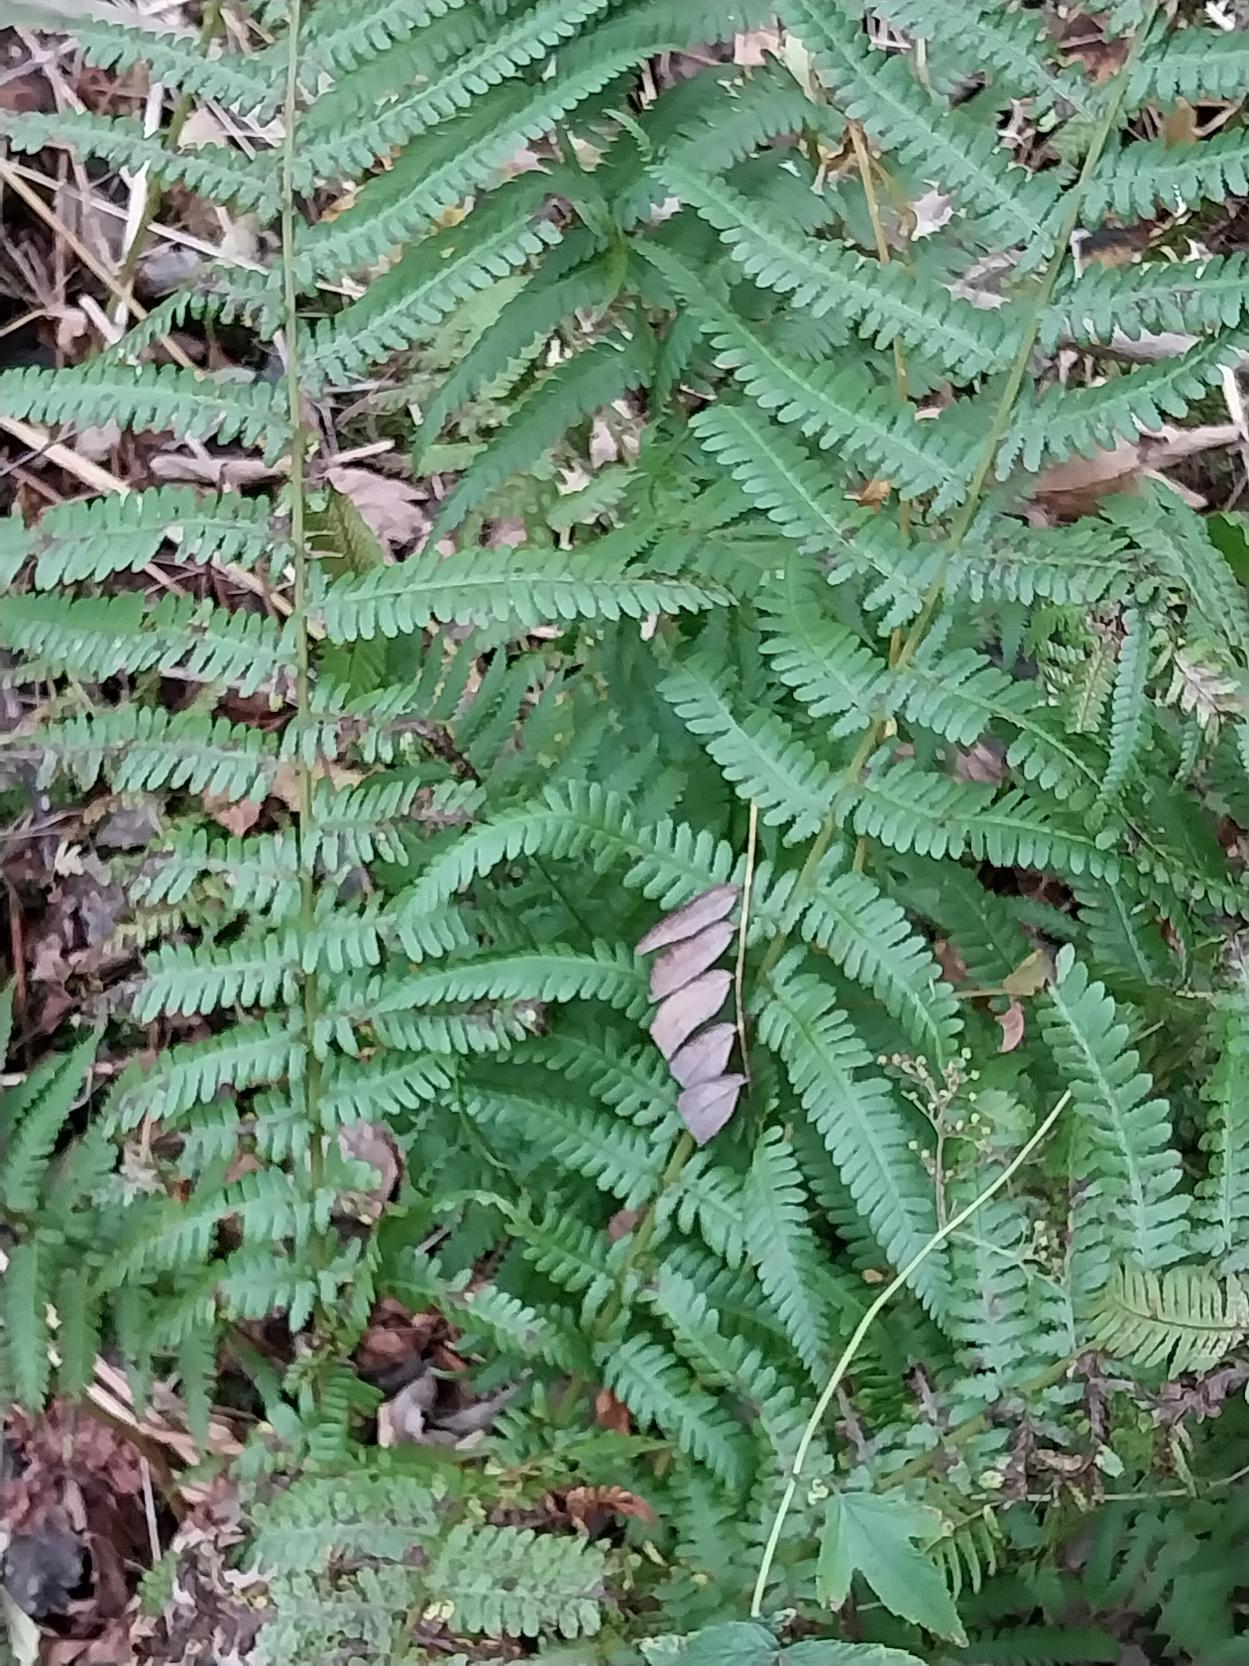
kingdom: Plantae
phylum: Tracheophyta
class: Polypodiopsida
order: Polypodiales
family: Dryopteridaceae
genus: Dryopteris
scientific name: Dryopteris filix-mas
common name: Almindelig mangeløv
